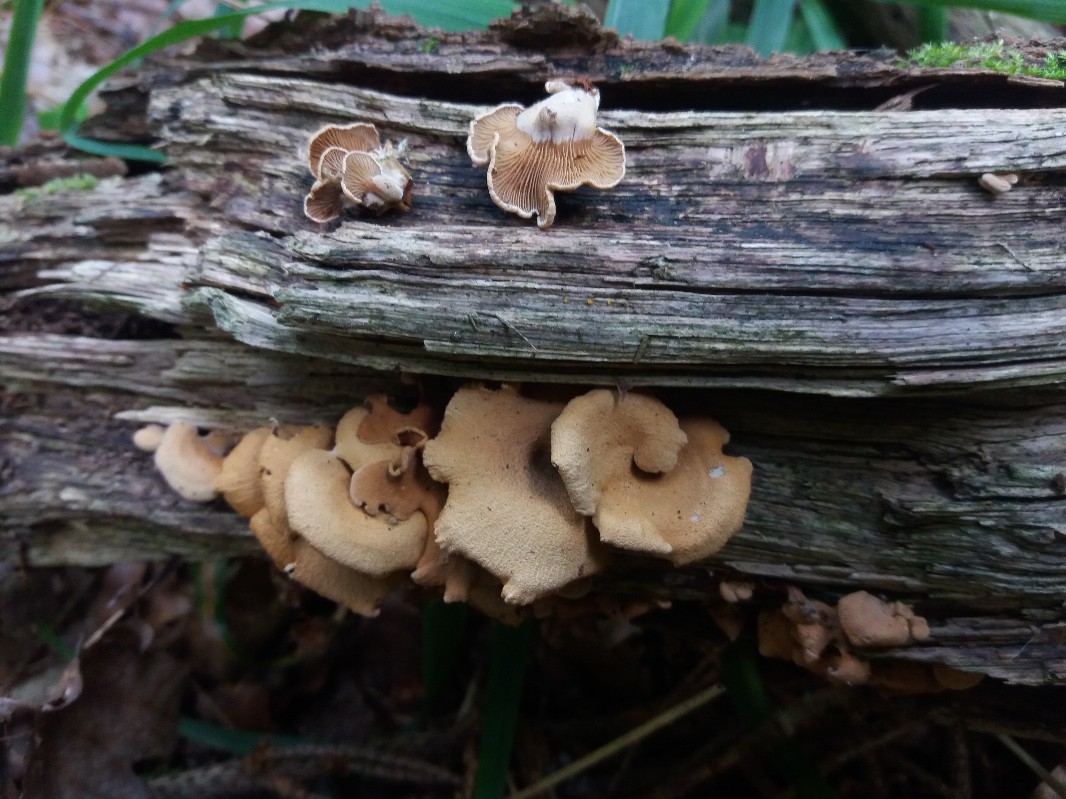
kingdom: Fungi
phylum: Basidiomycota
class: Agaricomycetes
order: Agaricales
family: Mycenaceae
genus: Panellus
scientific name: Panellus stipticus
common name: kliddet epaulethat
